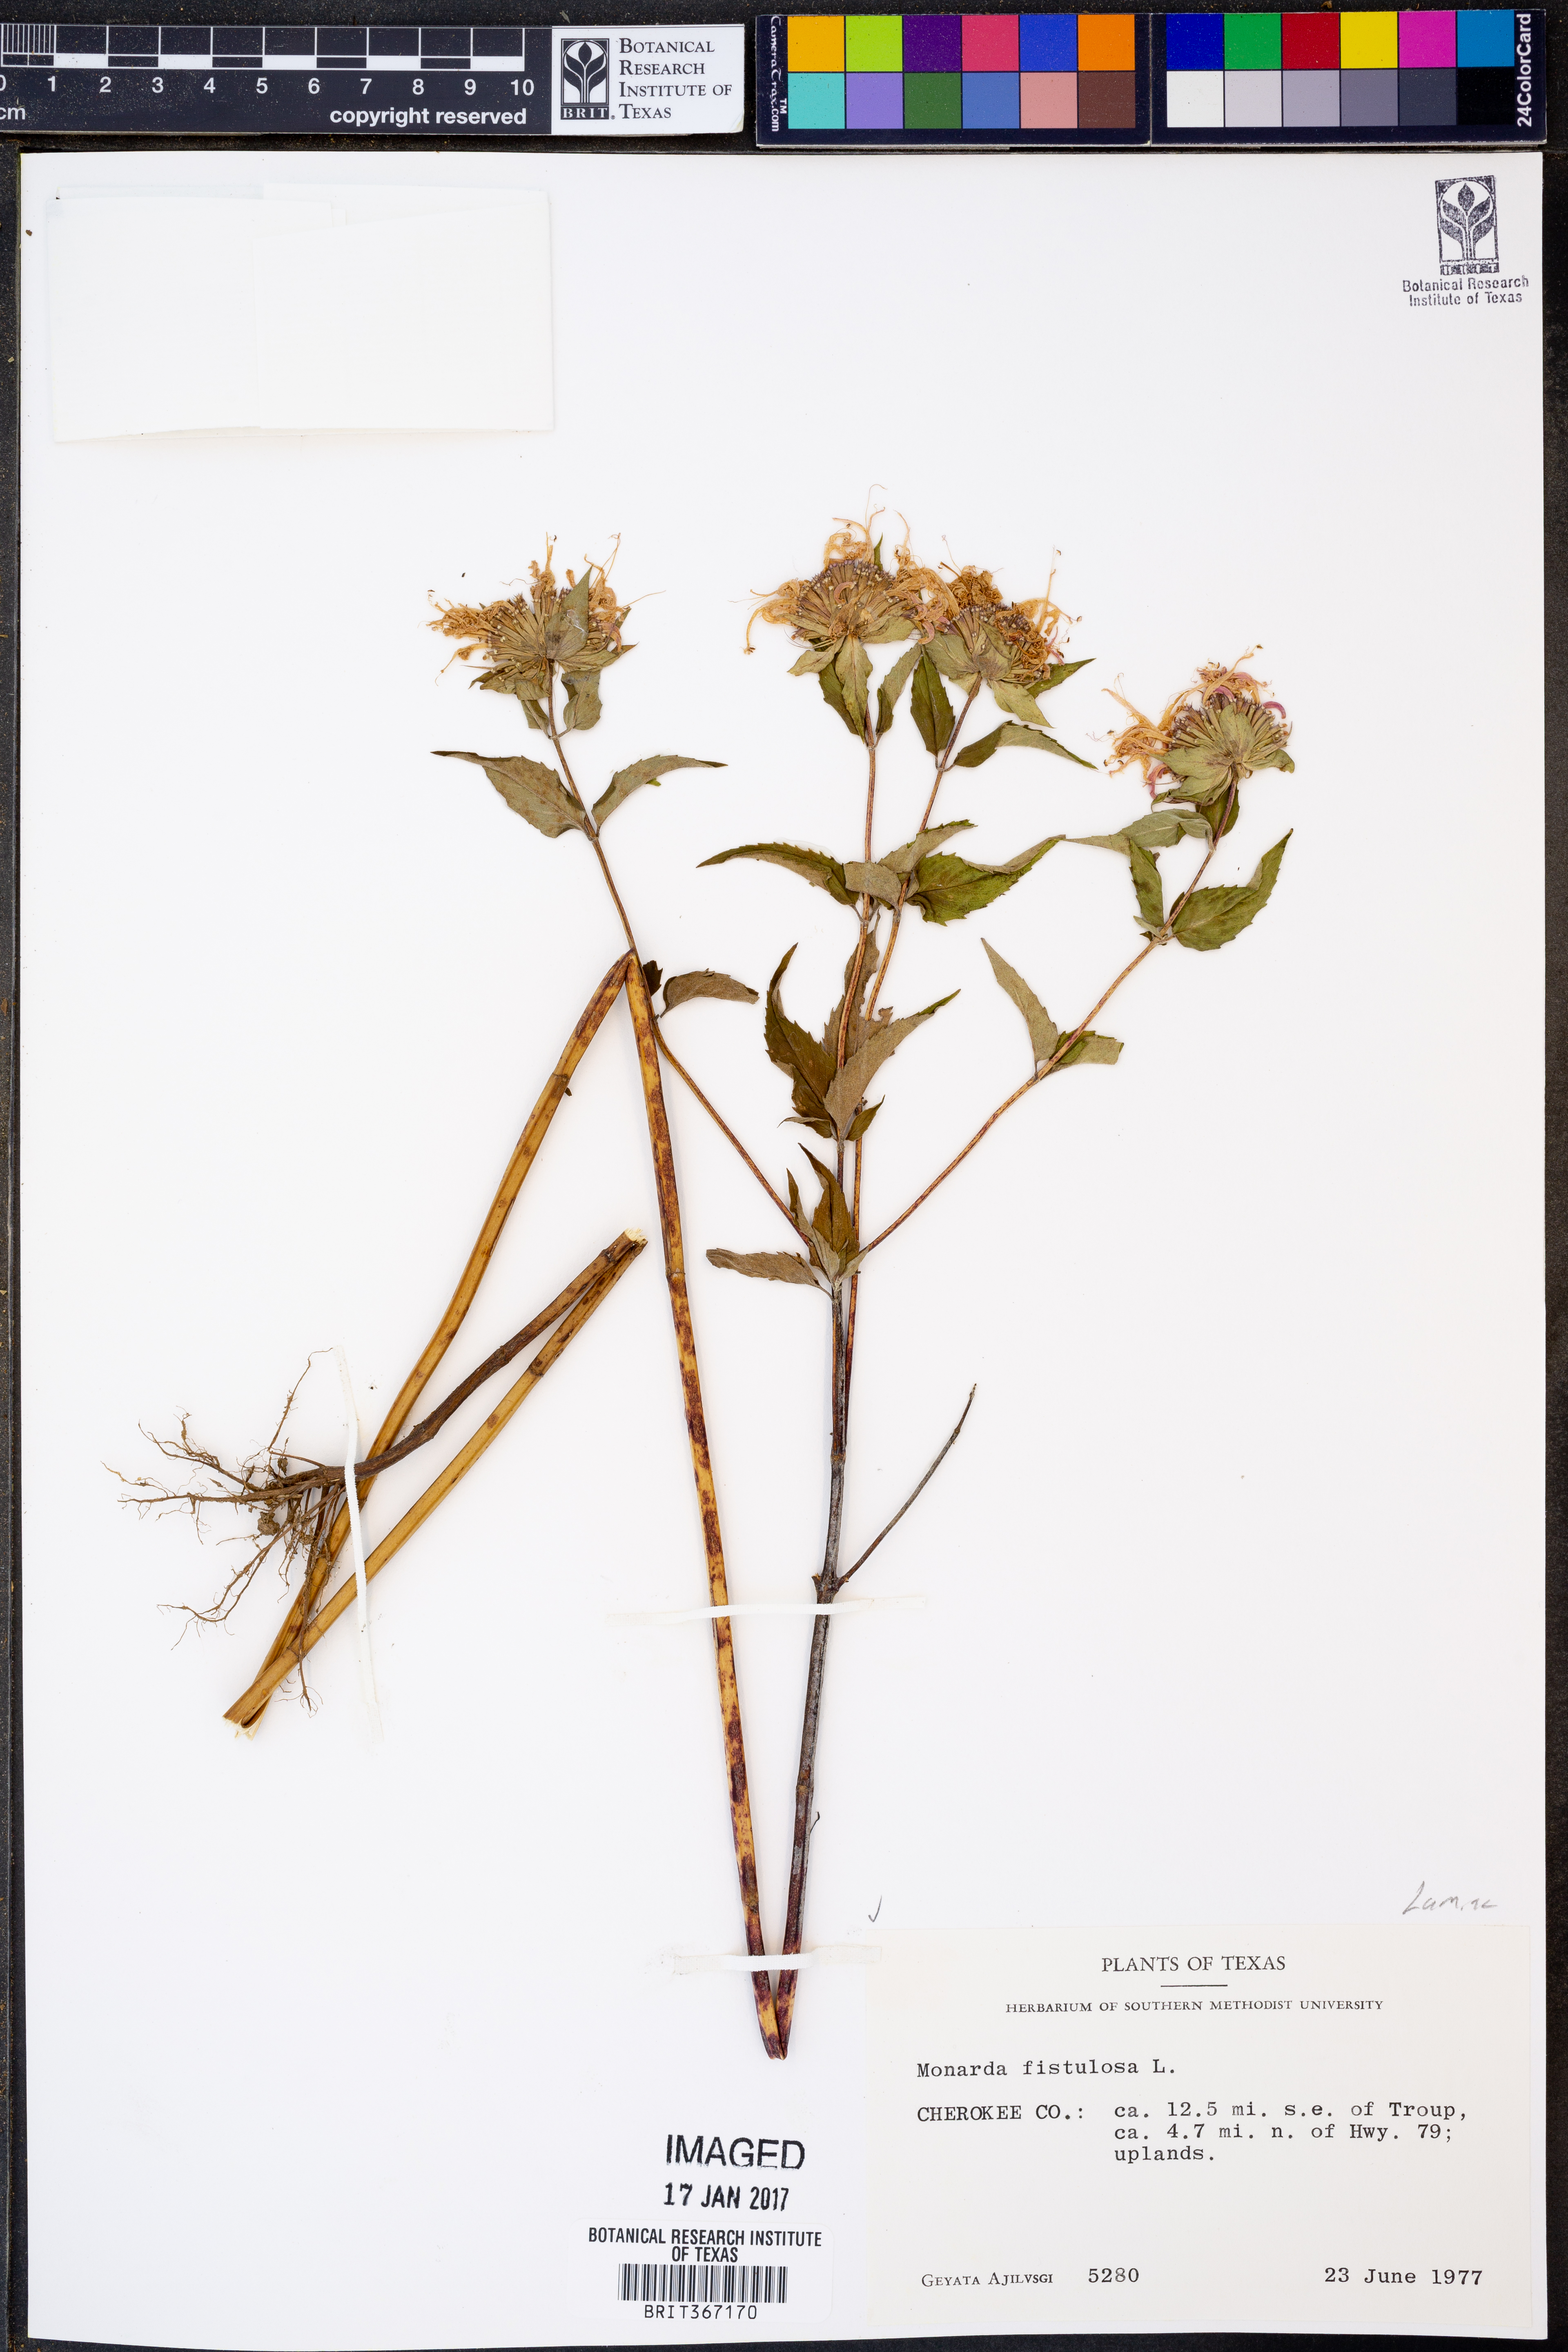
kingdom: Plantae
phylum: Tracheophyta
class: Magnoliopsida
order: Lamiales
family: Lamiaceae
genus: Monarda
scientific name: Monarda fistulosa
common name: Purple beebalm
